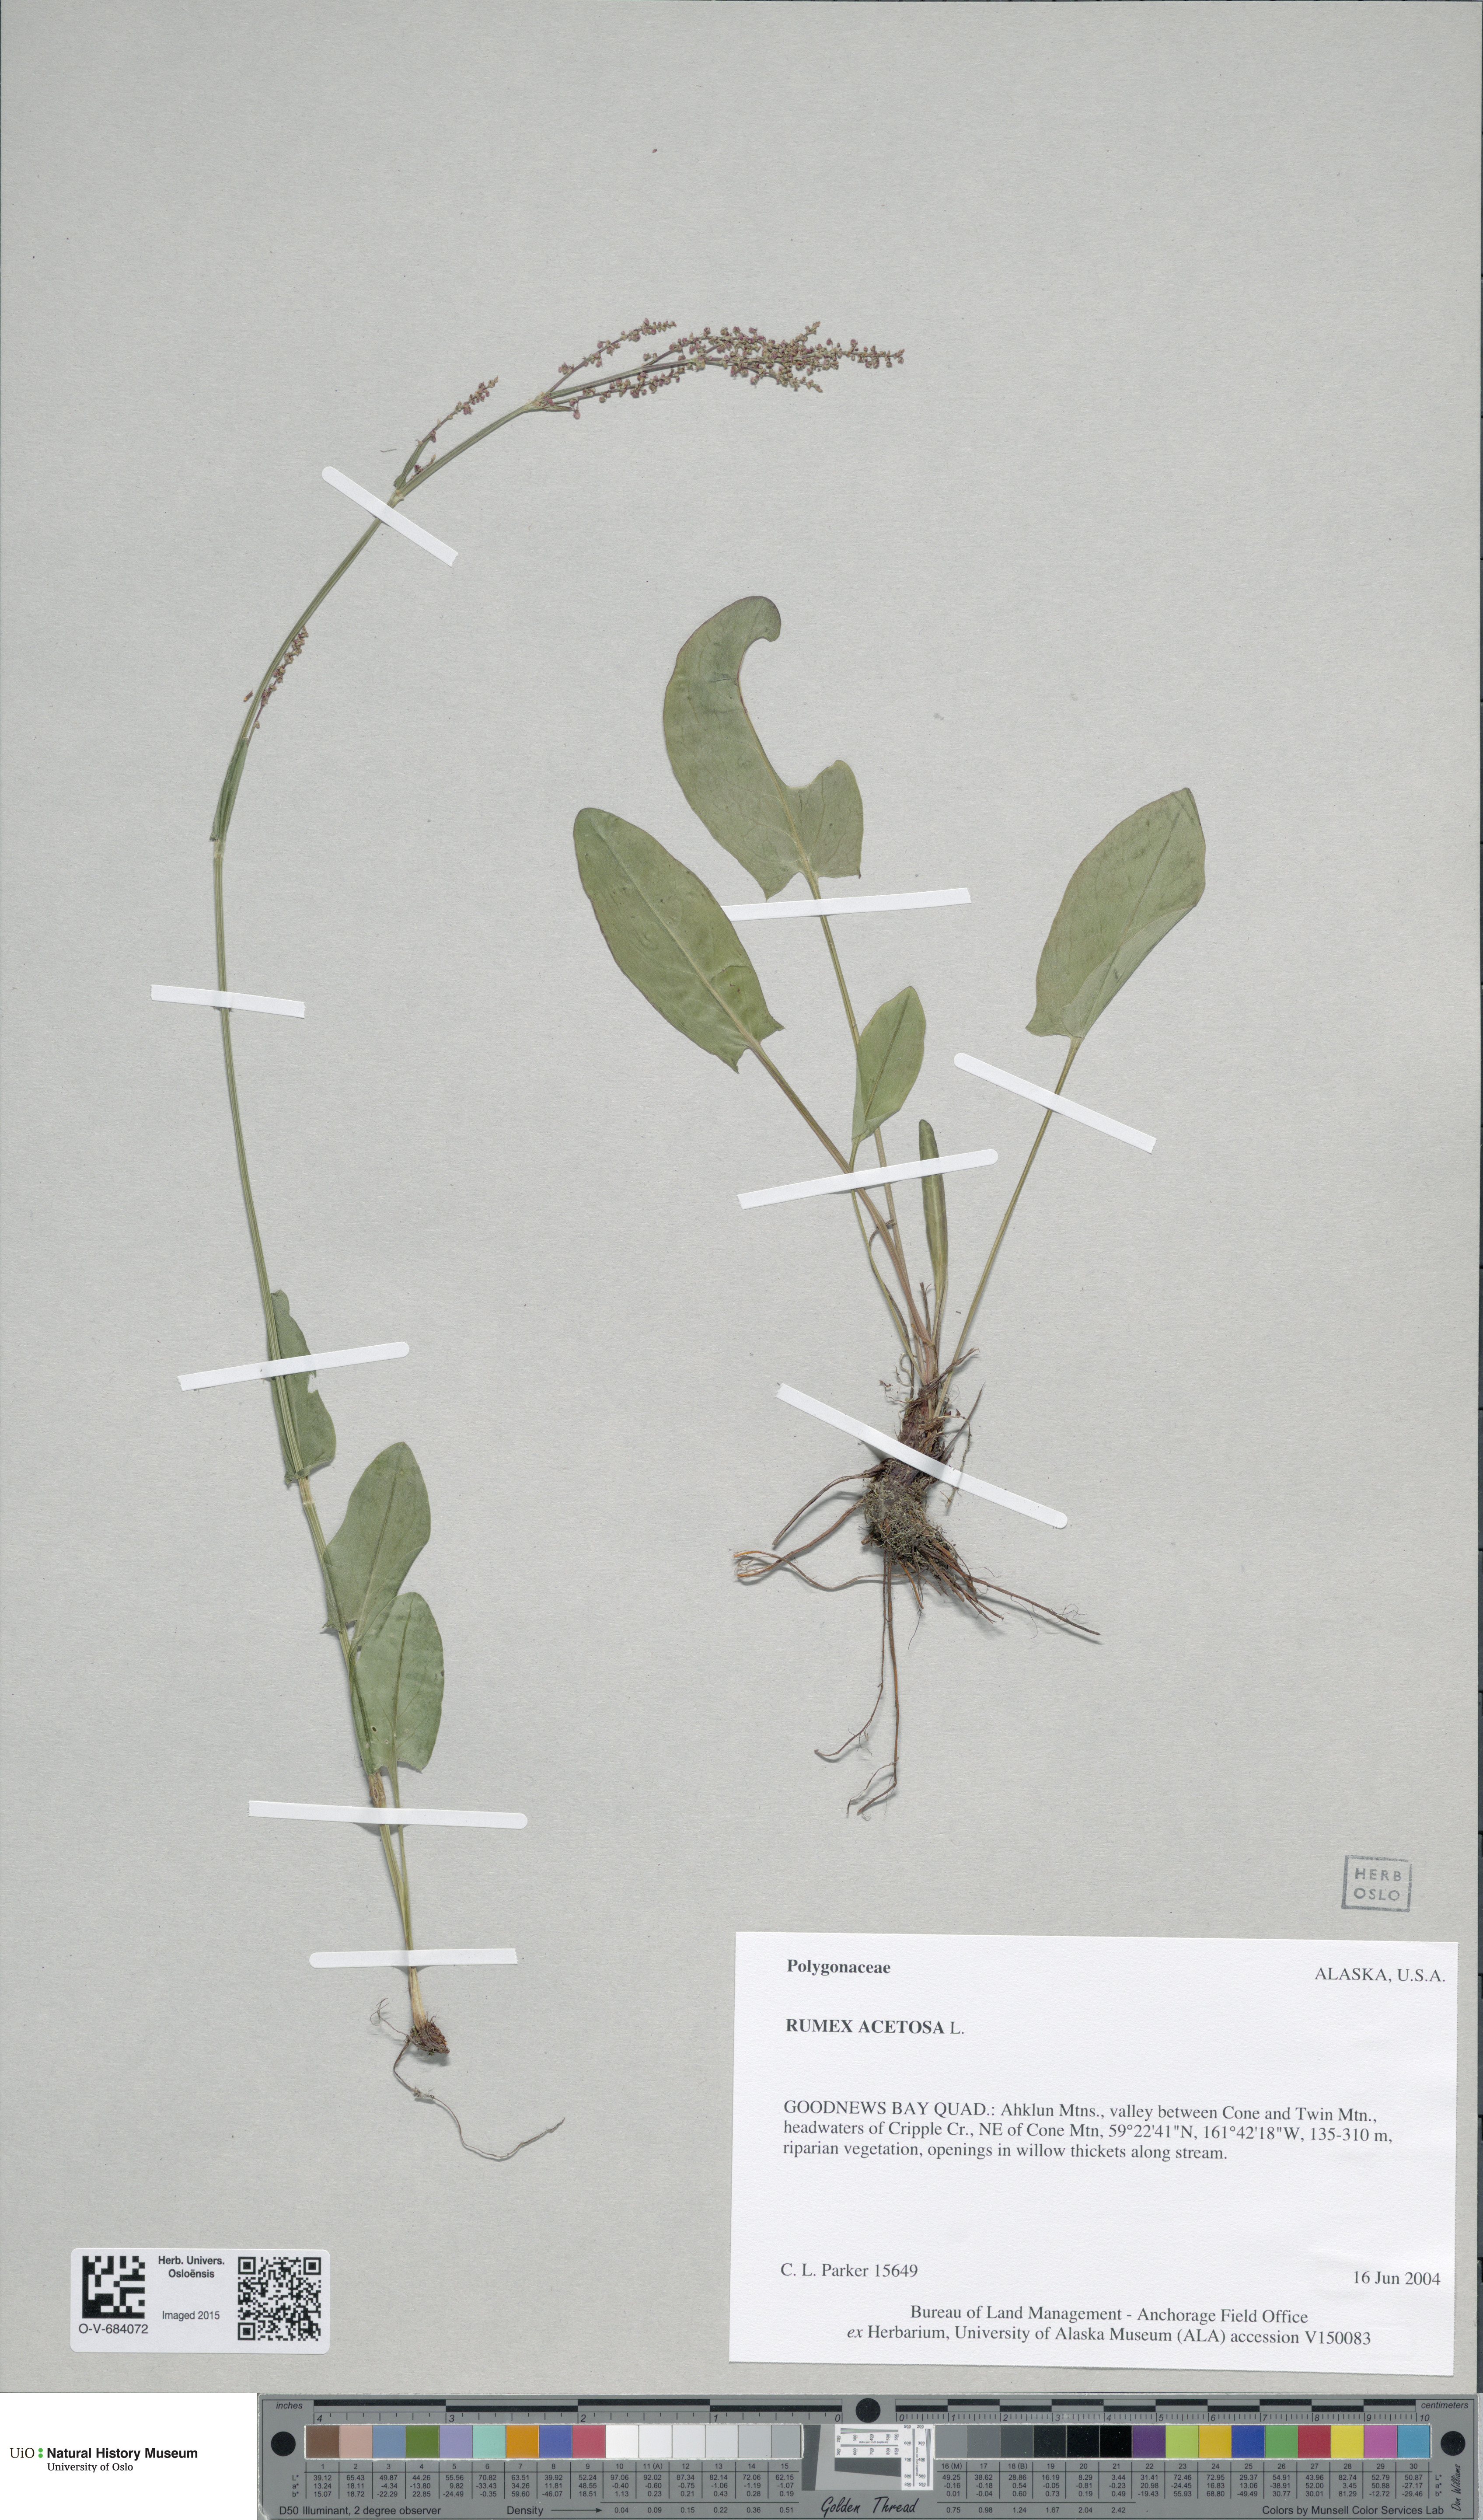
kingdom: Plantae
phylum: Tracheophyta
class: Magnoliopsida
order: Caryophyllales
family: Polygonaceae
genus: Rumex
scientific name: Rumex acetosa
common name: Garden sorrel
